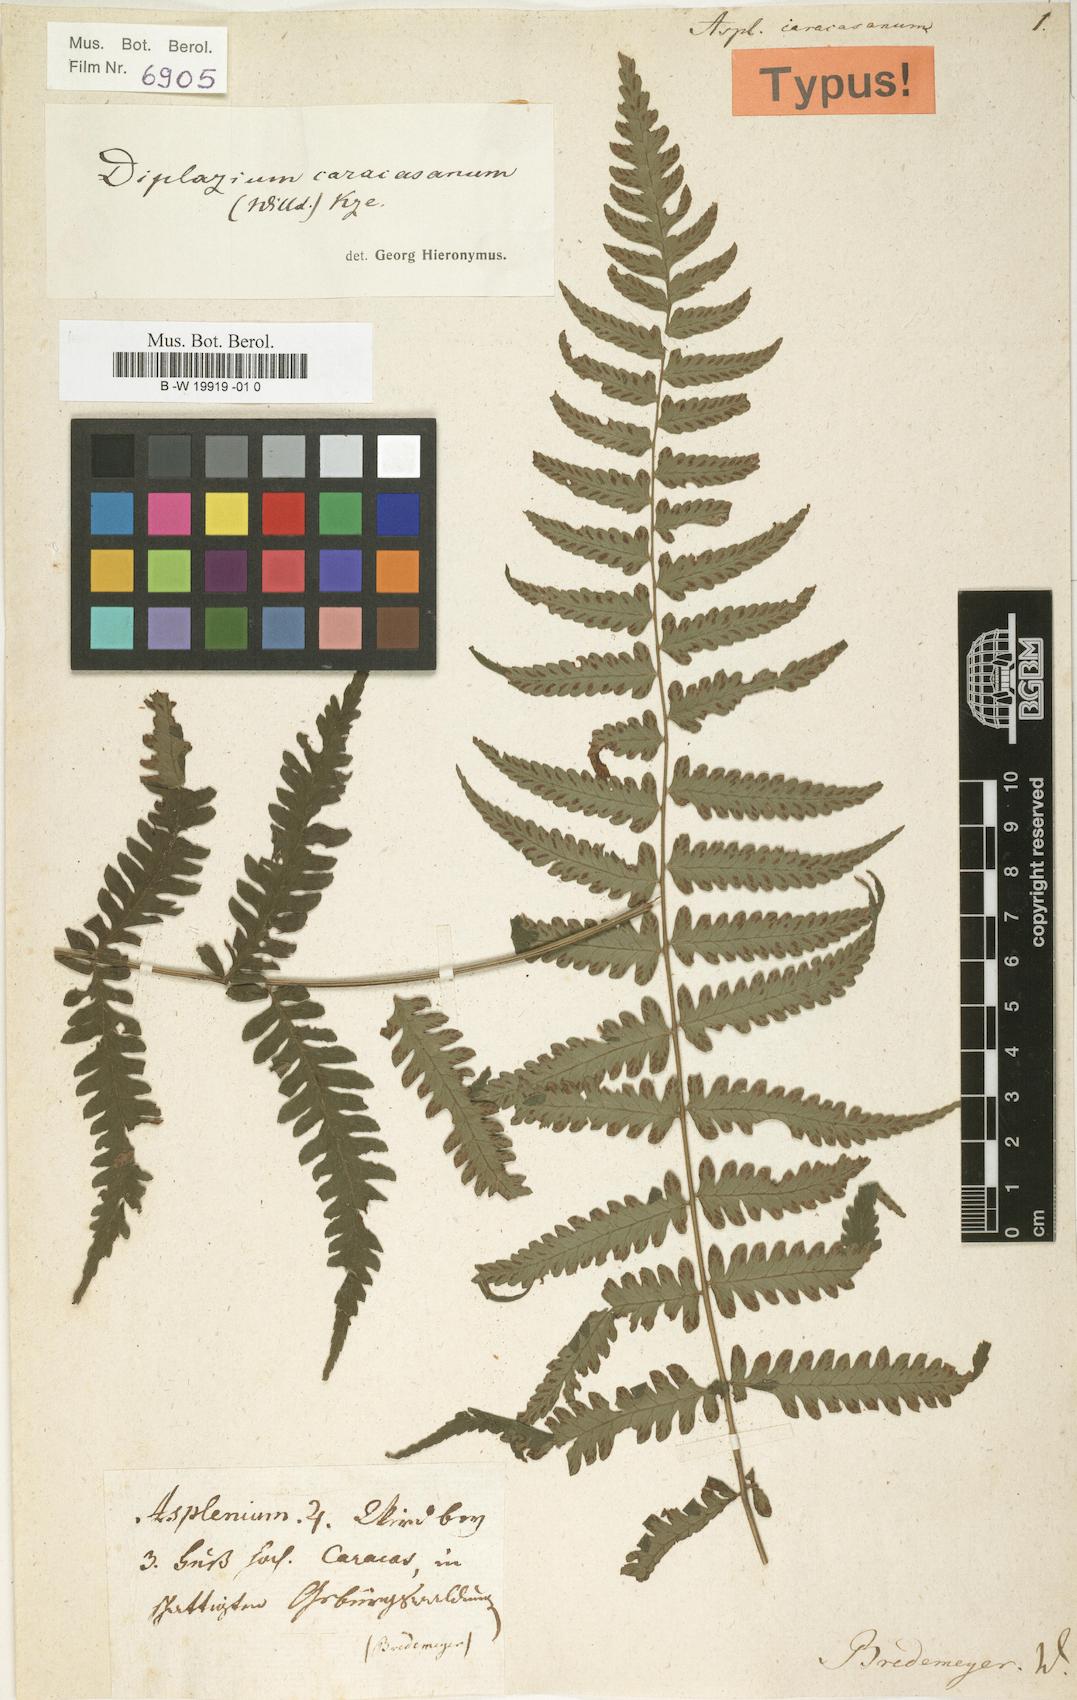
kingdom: Plantae
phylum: Tracheophyta
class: Polypodiopsida
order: Polypodiales
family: Athyriaceae
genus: Diplazium
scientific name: Diplazium caracasanum
